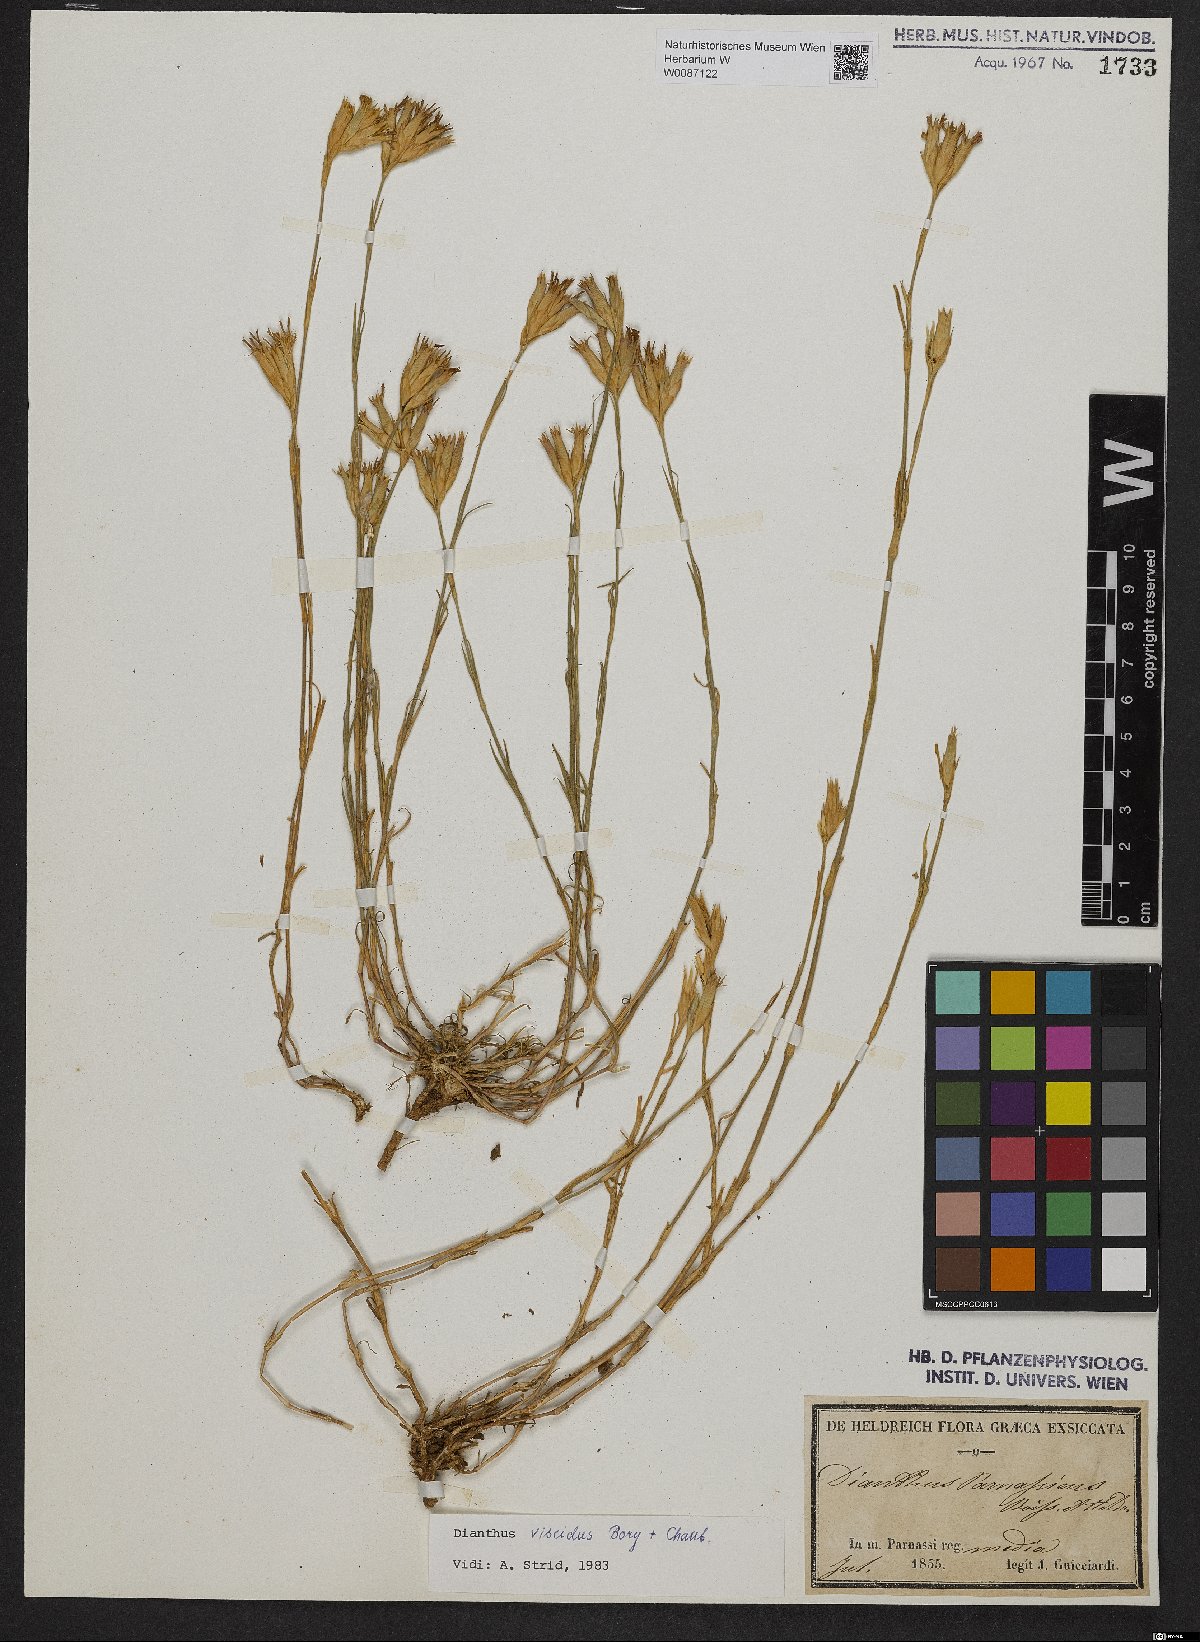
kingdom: Plantae
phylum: Tracheophyta
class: Magnoliopsida
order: Caryophyllales
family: Caryophyllaceae
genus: Dianthus
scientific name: Dianthus viscidus
